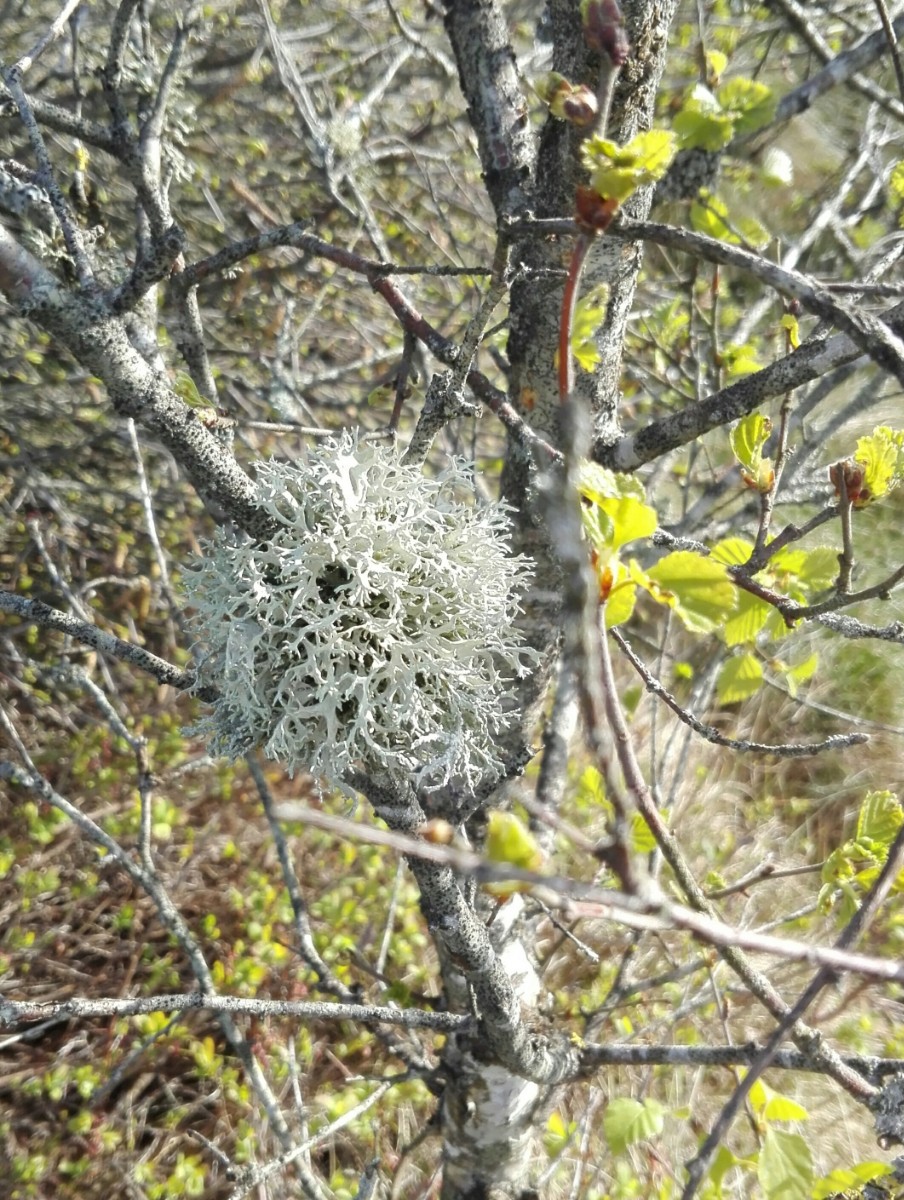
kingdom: Fungi
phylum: Ascomycota
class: Lecanoromycetes
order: Lecanorales
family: Parmeliaceae
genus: Evernia
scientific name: Evernia prunastri
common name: almindelig slåenlav
